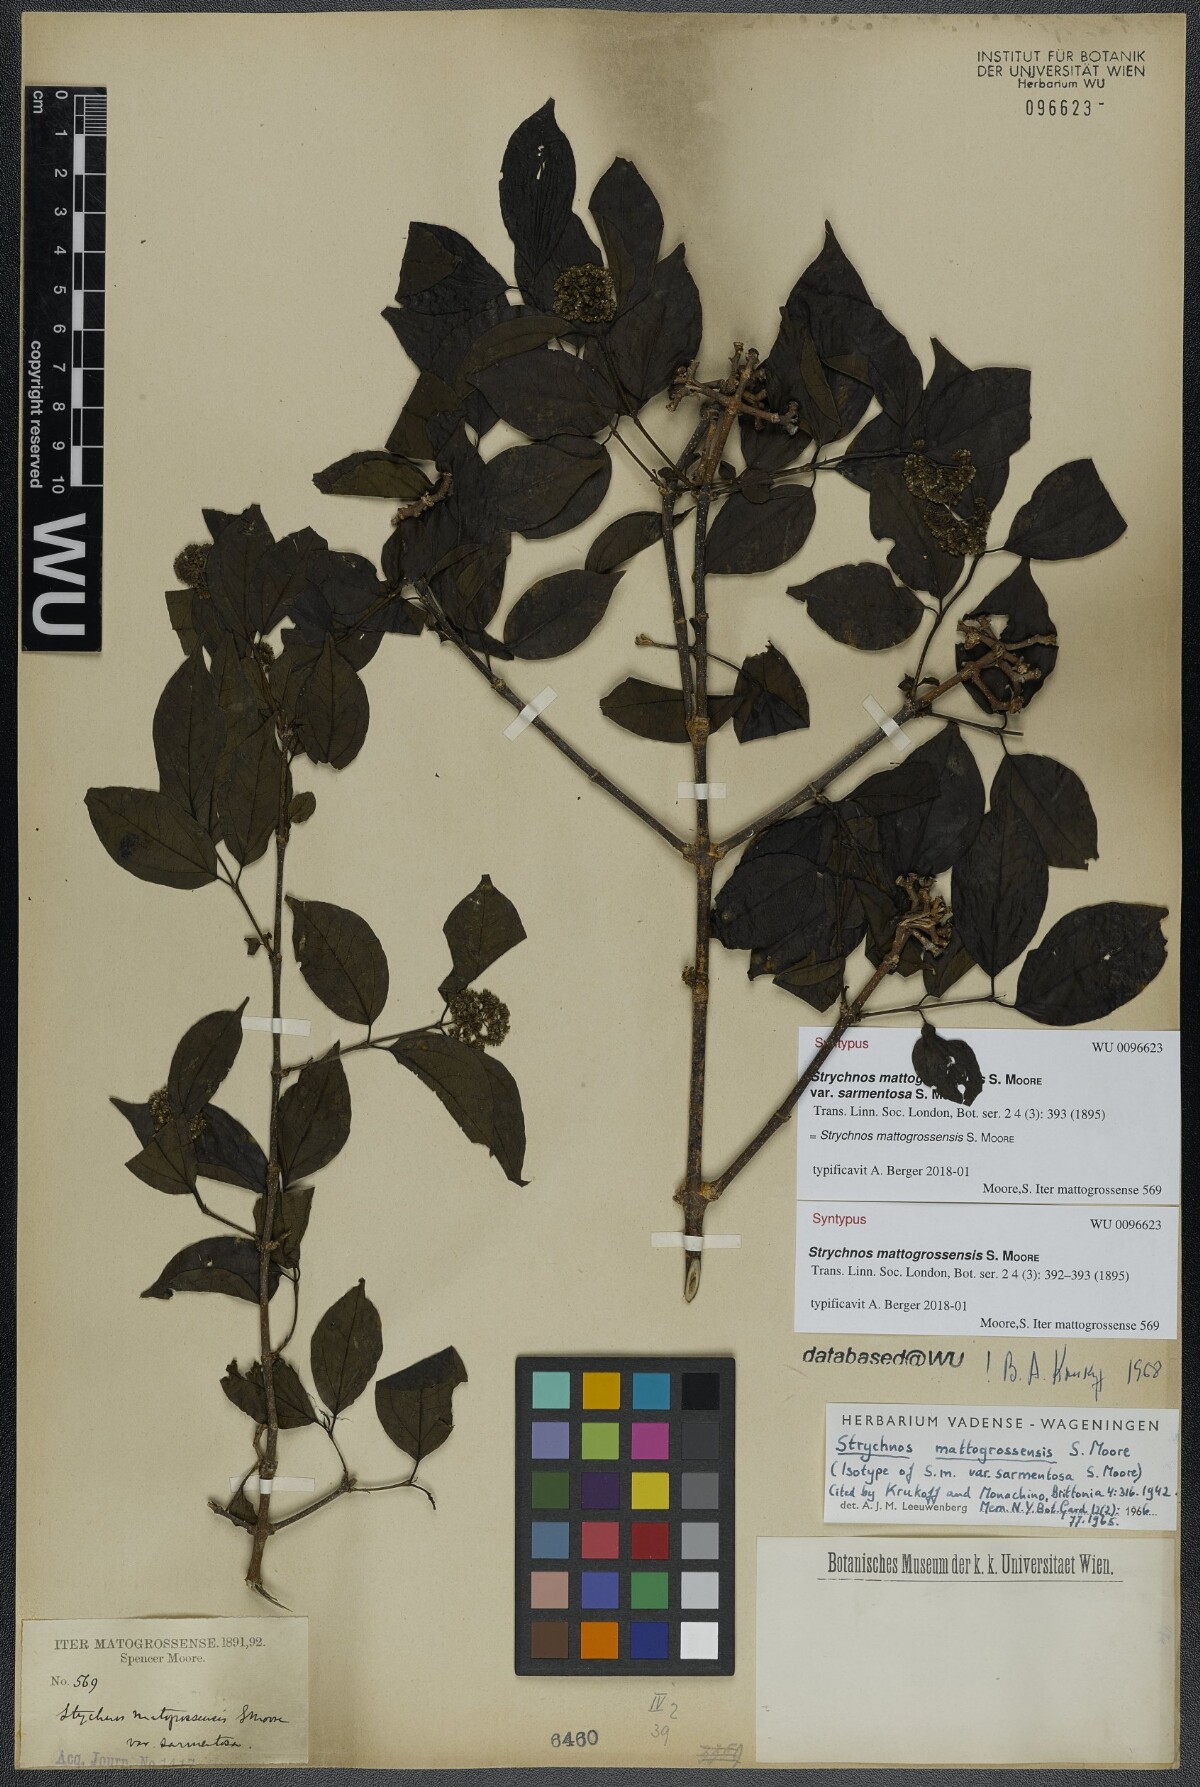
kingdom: Plantae
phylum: Tracheophyta
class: Magnoliopsida
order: Gentianales
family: Loganiaceae
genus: Strychnos
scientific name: Strychnos mattogrossensis
